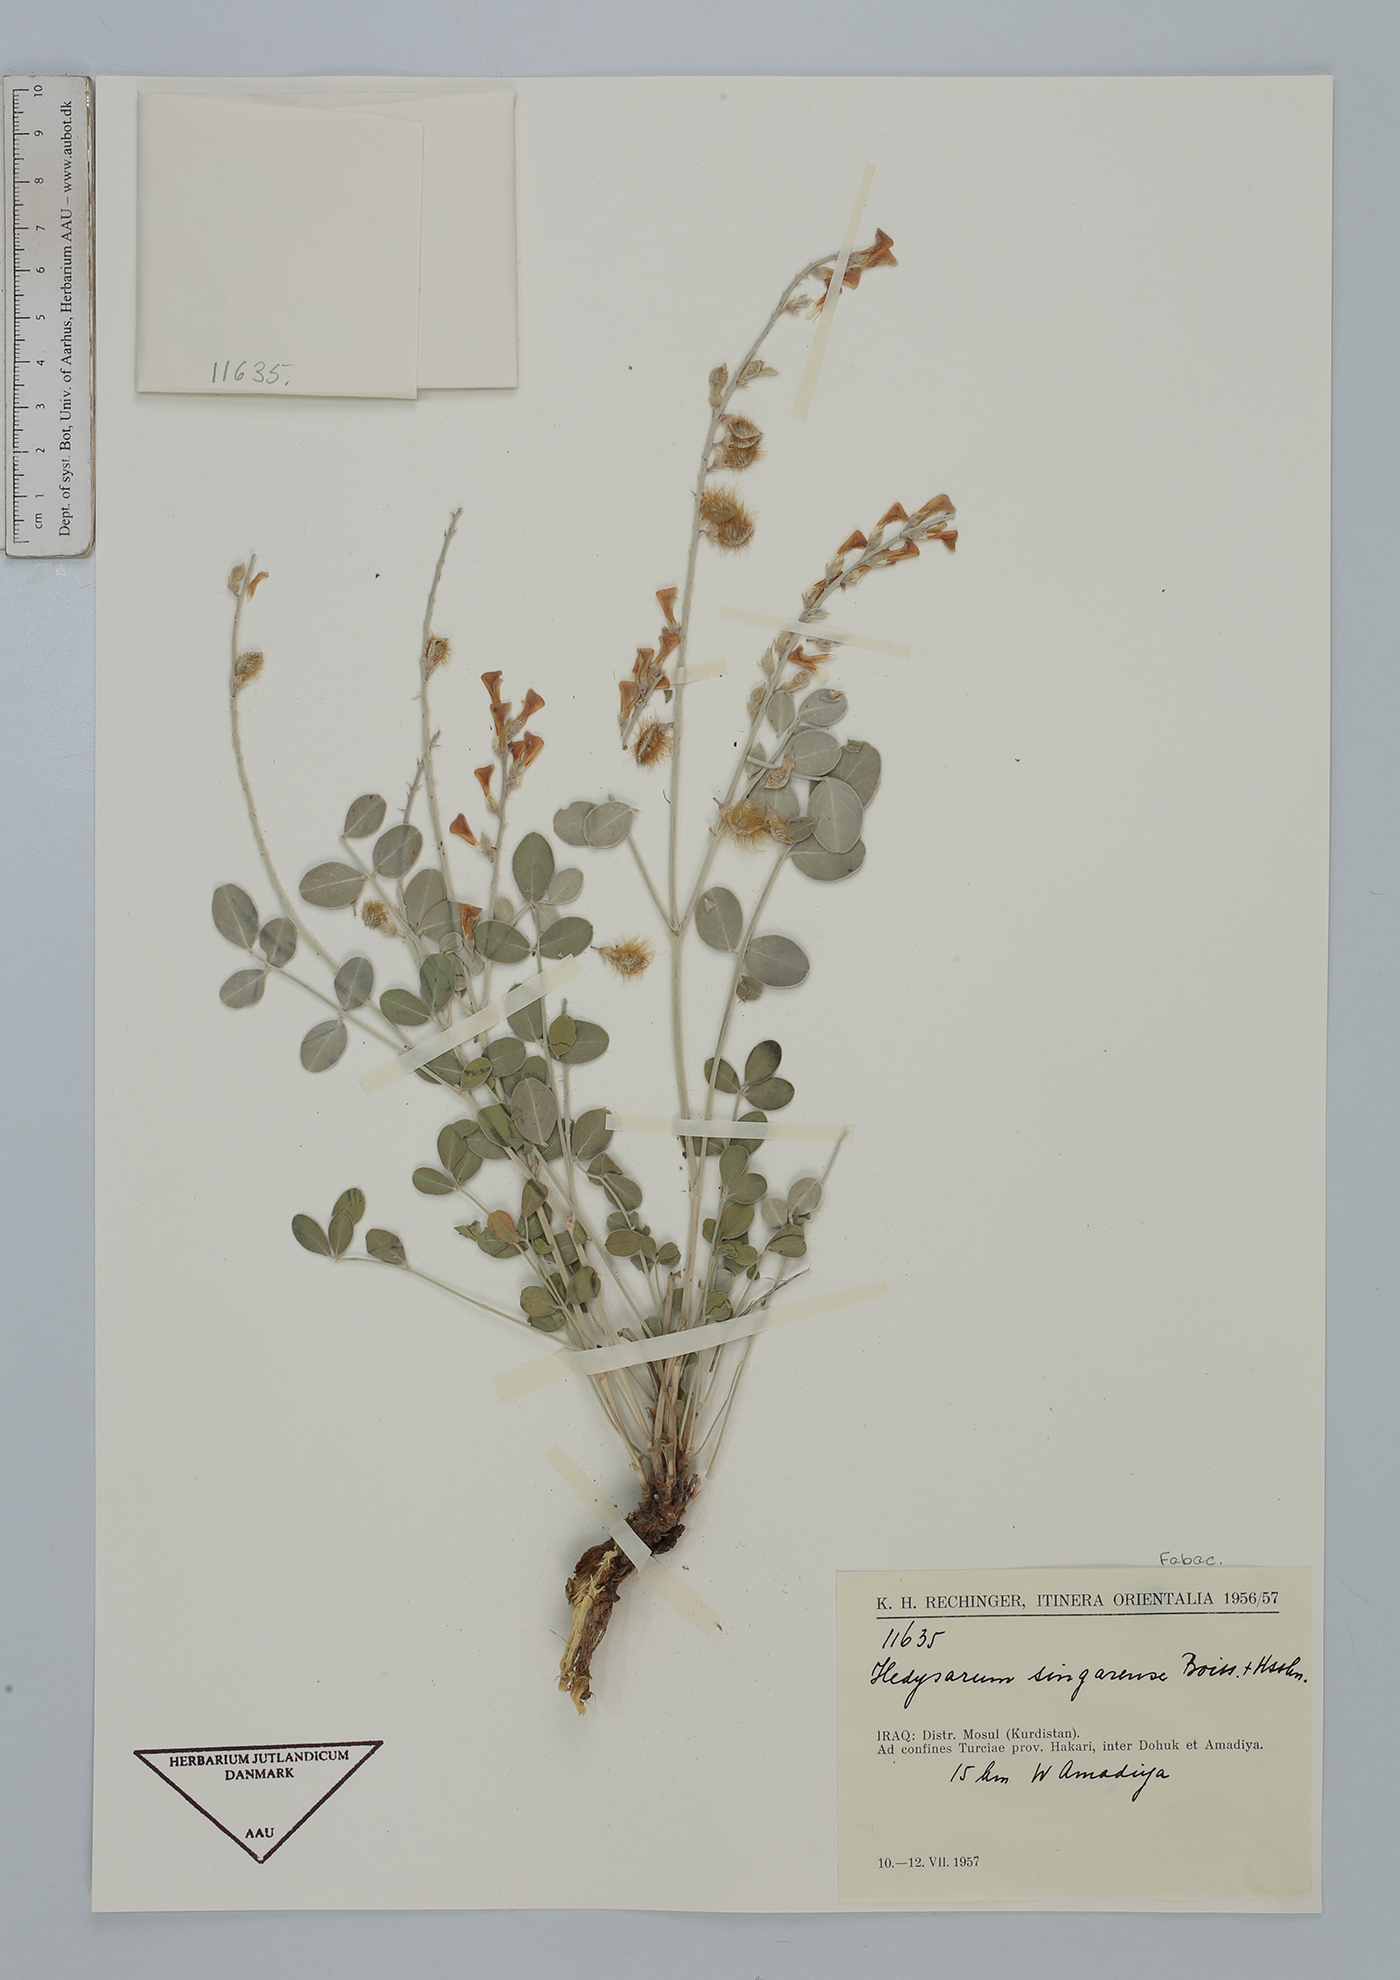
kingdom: Plantae
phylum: Tracheophyta
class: Magnoliopsida
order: Fabales
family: Fabaceae
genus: Hedysarum
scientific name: Hedysarum singarense
